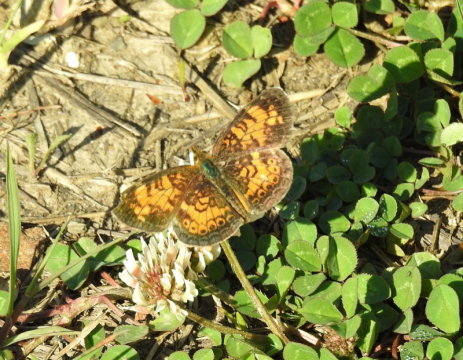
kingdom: Animalia
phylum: Arthropoda
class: Insecta
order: Lepidoptera
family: Nymphalidae
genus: Phyciodes
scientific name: Phyciodes tharos
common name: Pearl Crescent
